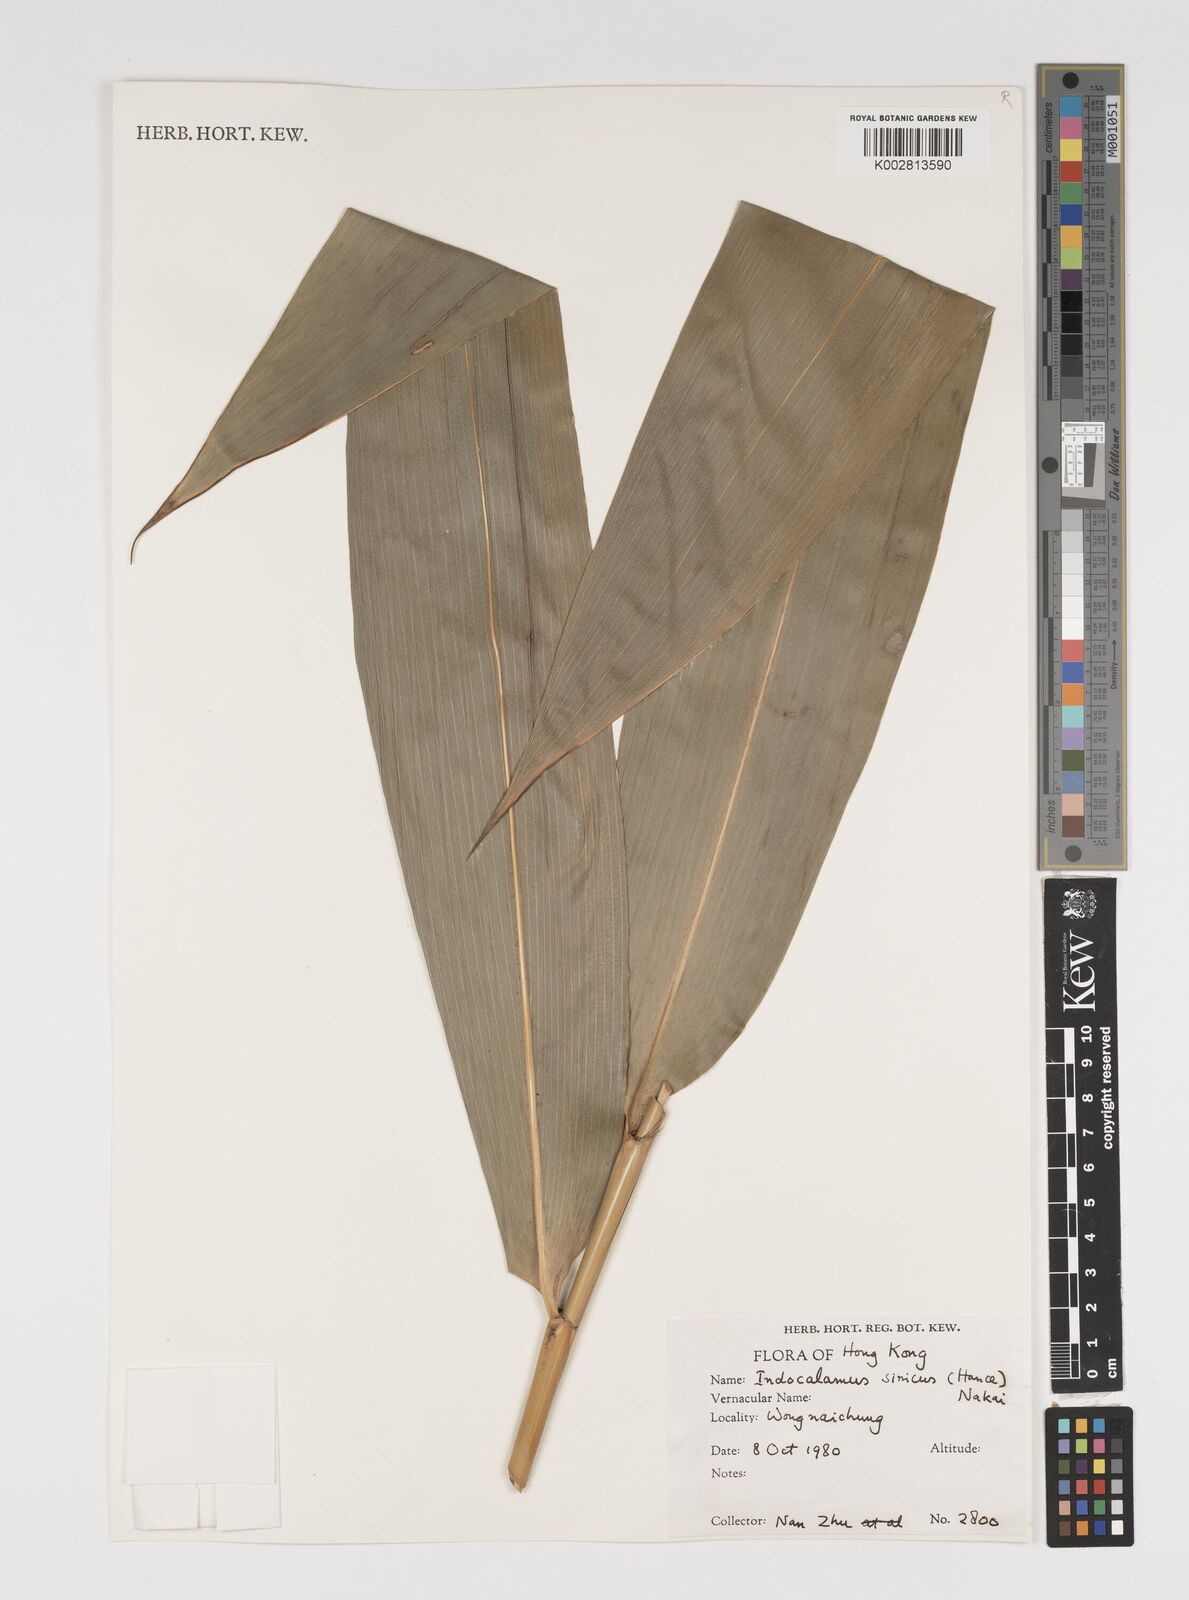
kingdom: Plantae
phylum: Tracheophyta
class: Liliopsida
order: Poales
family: Poaceae
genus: Indocalamus
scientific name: Indocalamus sinicus
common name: Chinese cane
